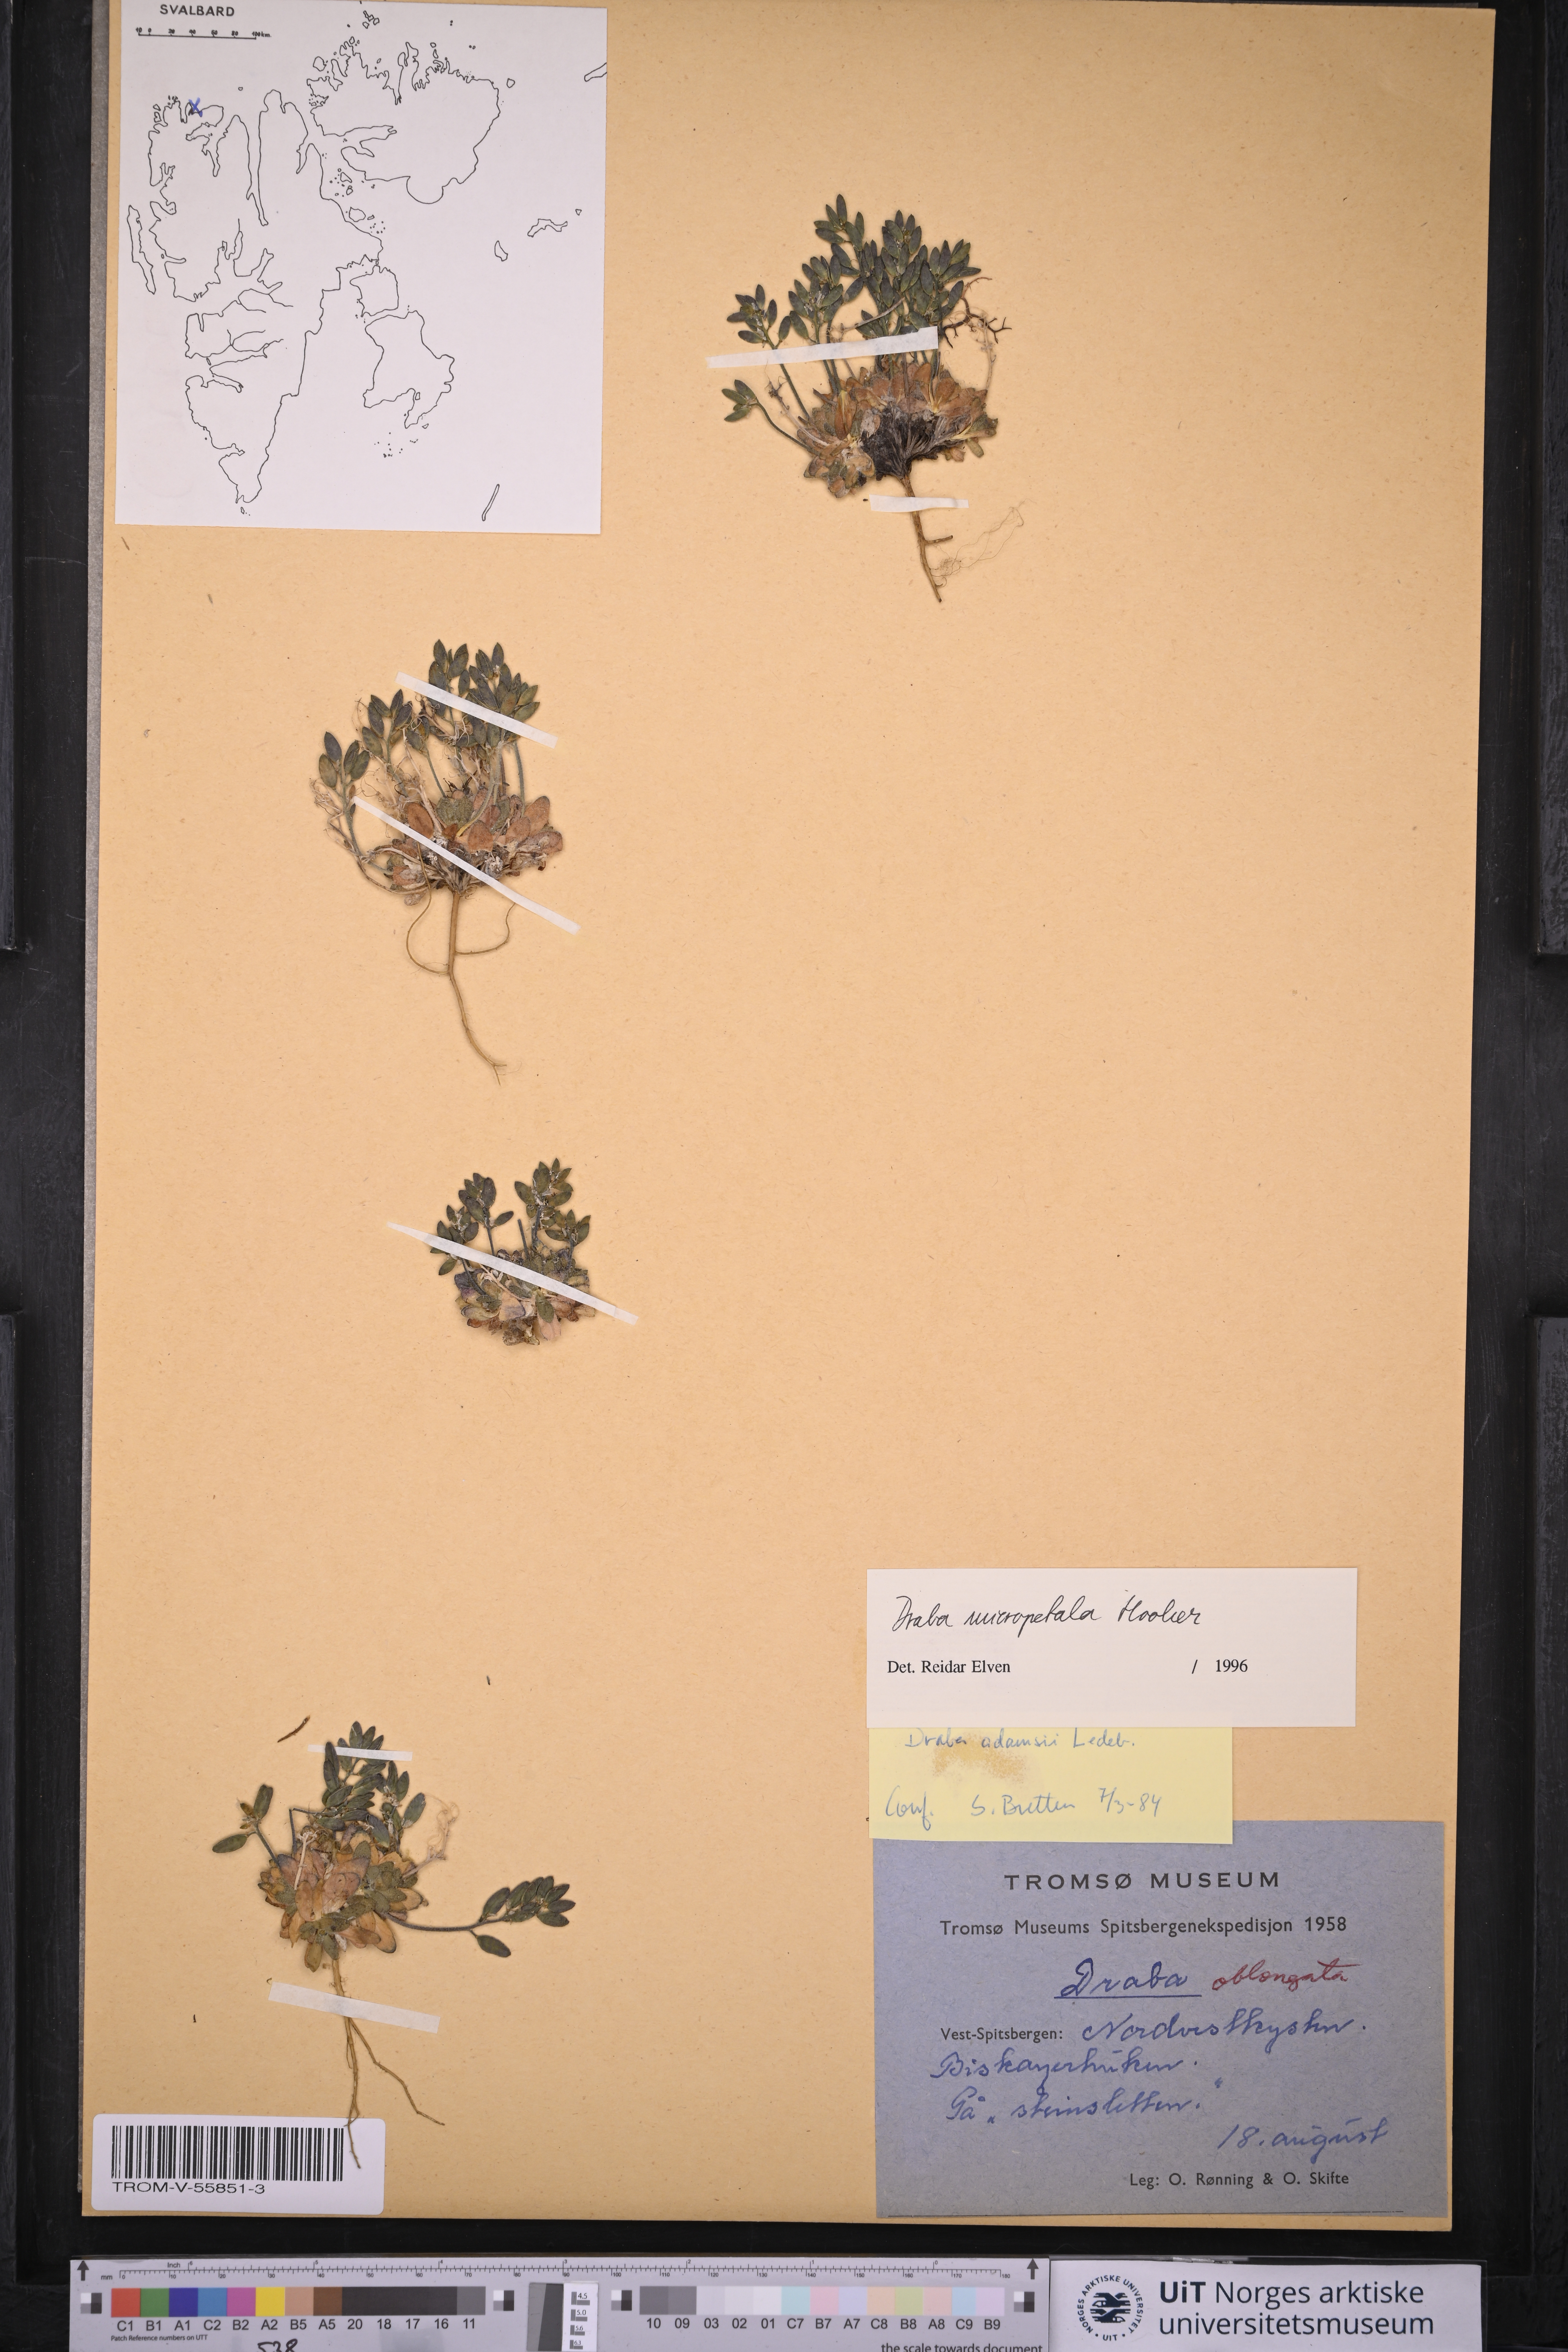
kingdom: Plantae
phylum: Tracheophyta
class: Magnoliopsida
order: Brassicales
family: Brassicaceae
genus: Draba
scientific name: Draba micropetala
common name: Small-flowered draba
